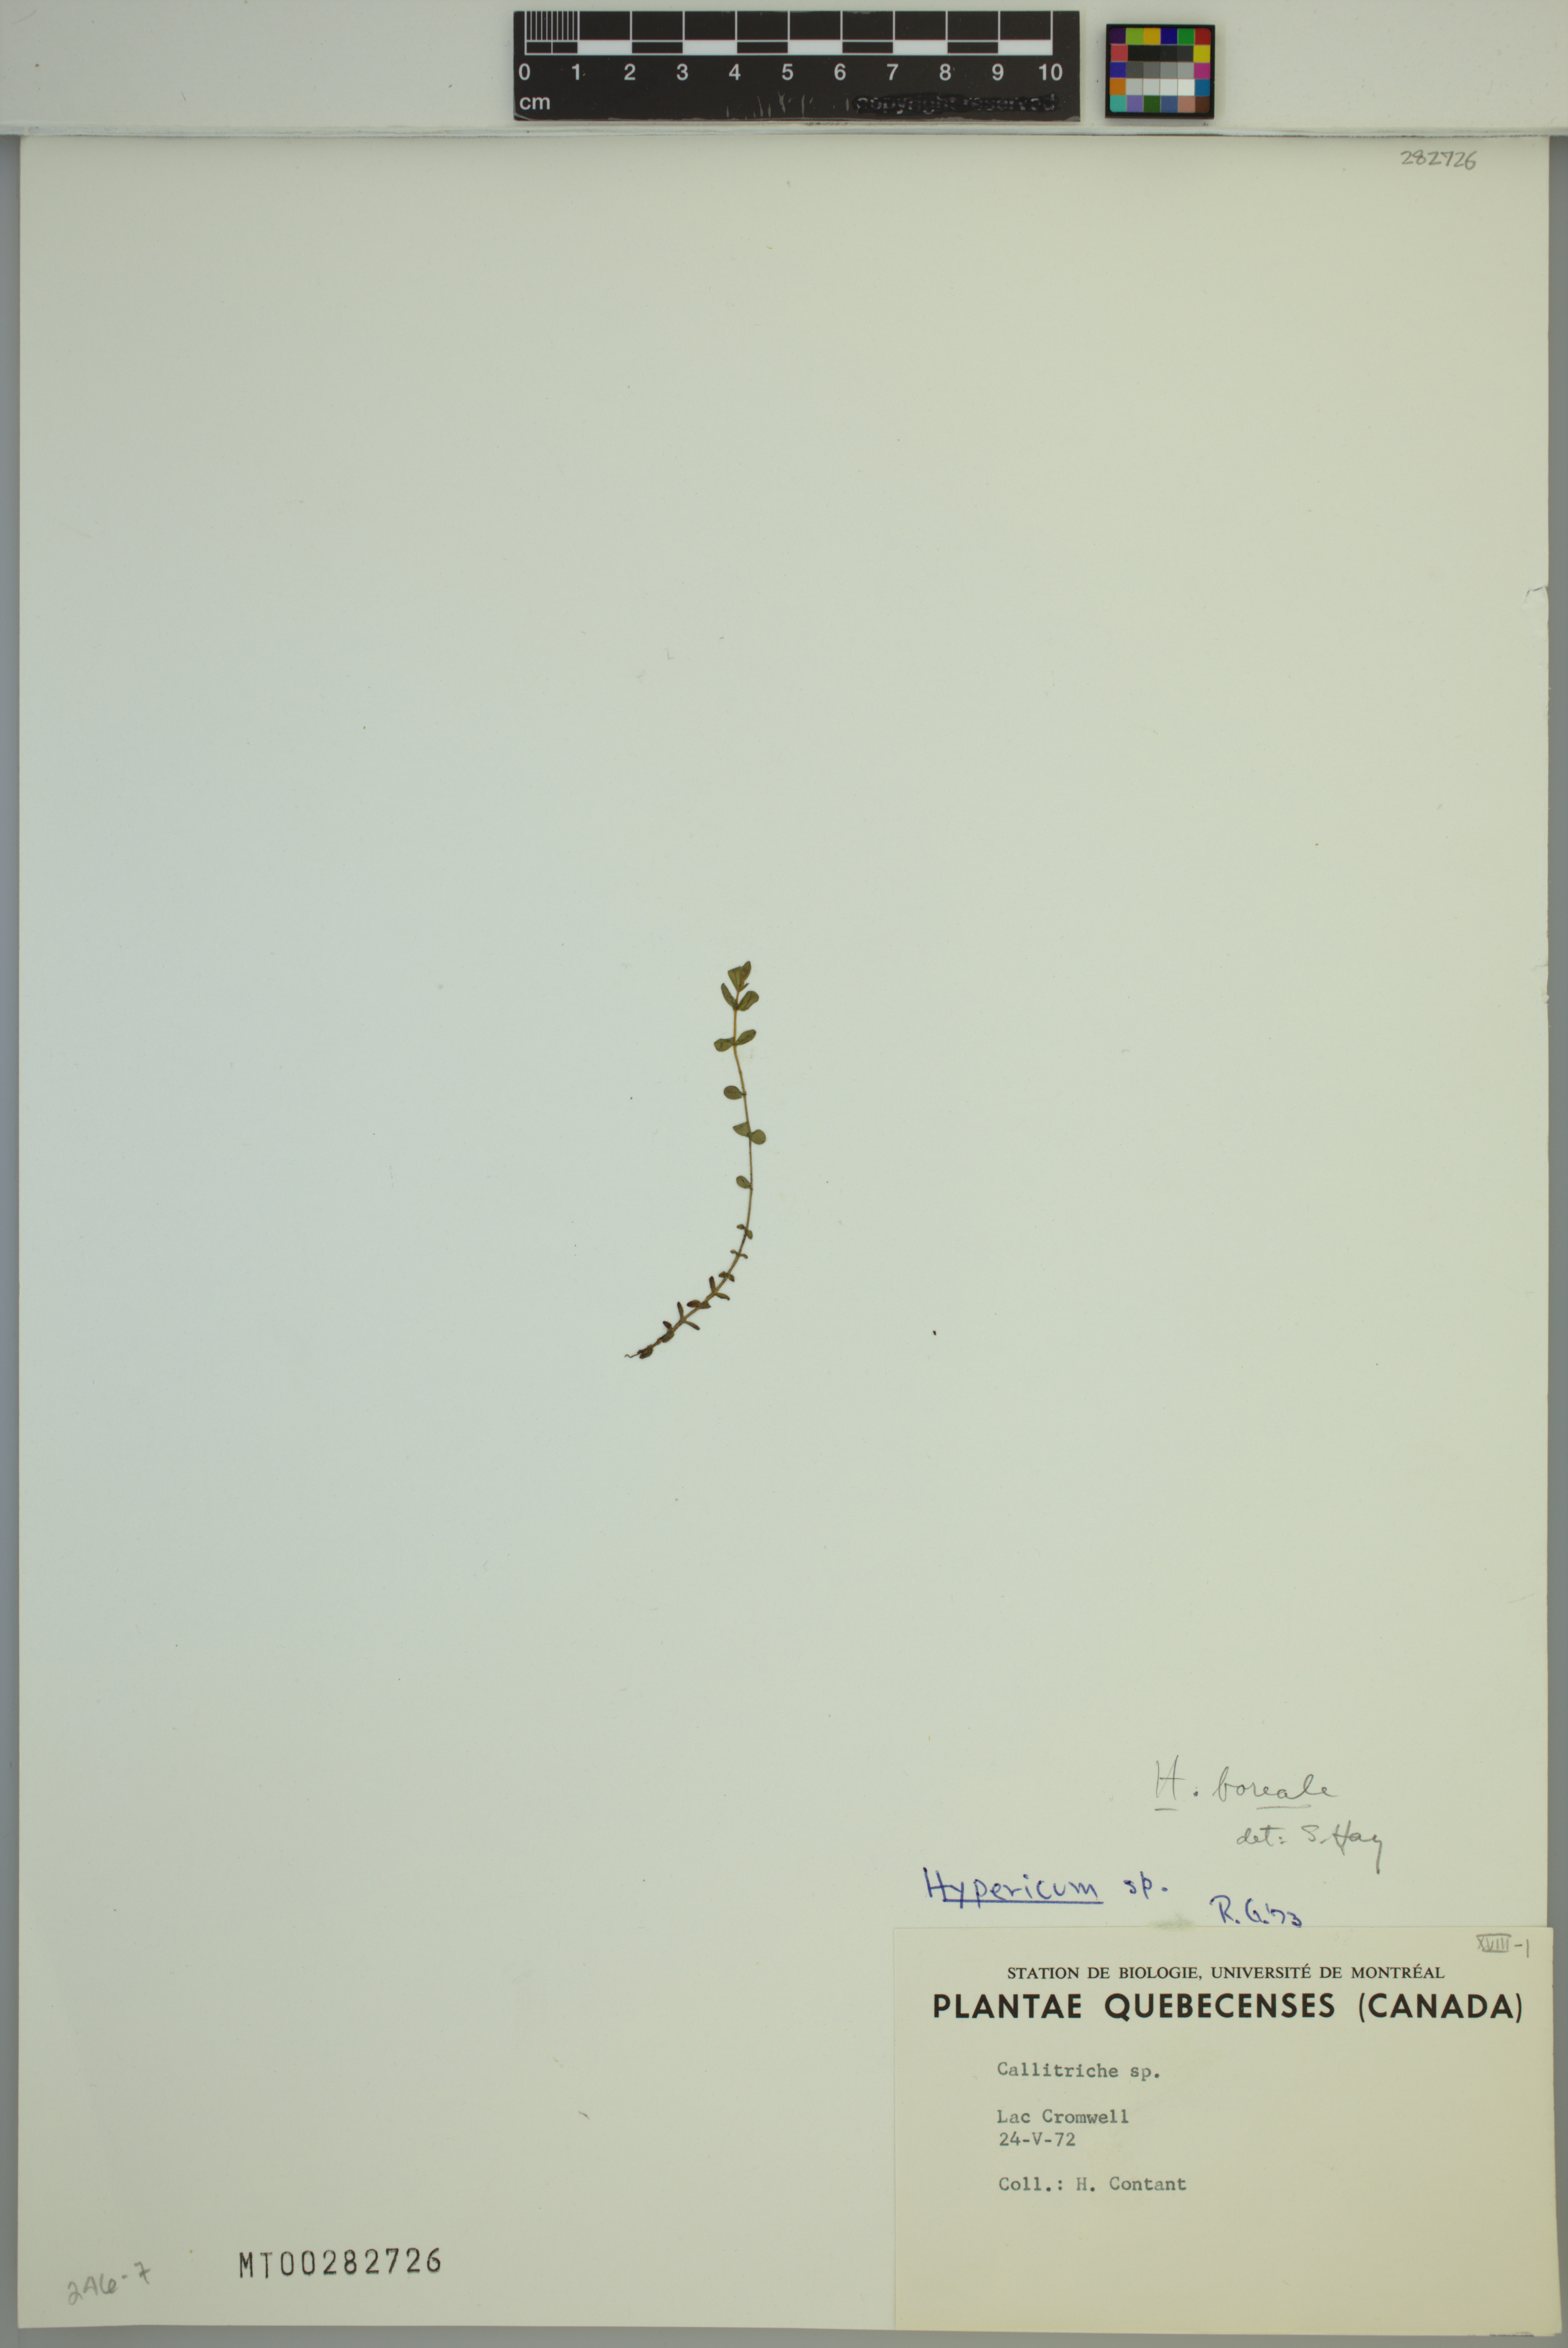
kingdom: Plantae
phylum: Tracheophyta
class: Magnoliopsida
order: Malpighiales
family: Hypericaceae
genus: Hypericum
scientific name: Hypericum boreale
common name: Northern bog st. john's-wort
